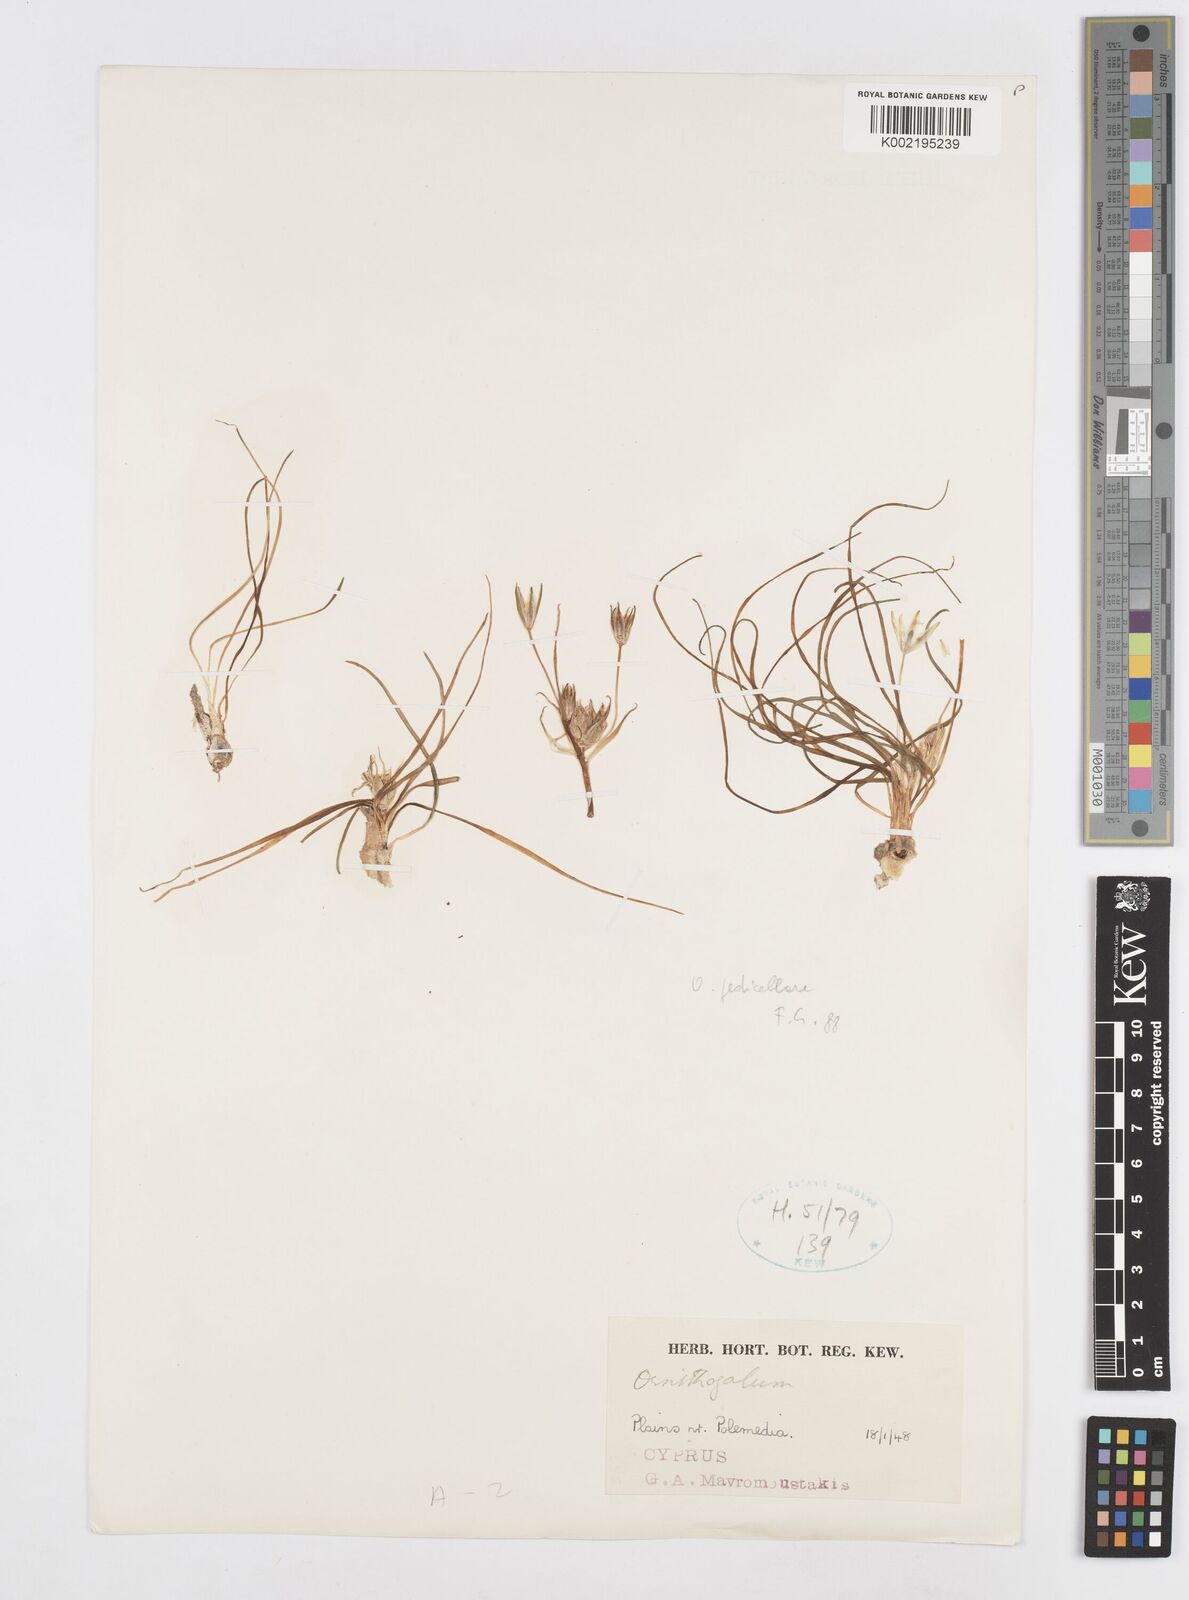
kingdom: Plantae
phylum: Tracheophyta
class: Liliopsida
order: Asparagales
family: Asparagaceae
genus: Ornithogalum
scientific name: Ornithogalum pedicellare
